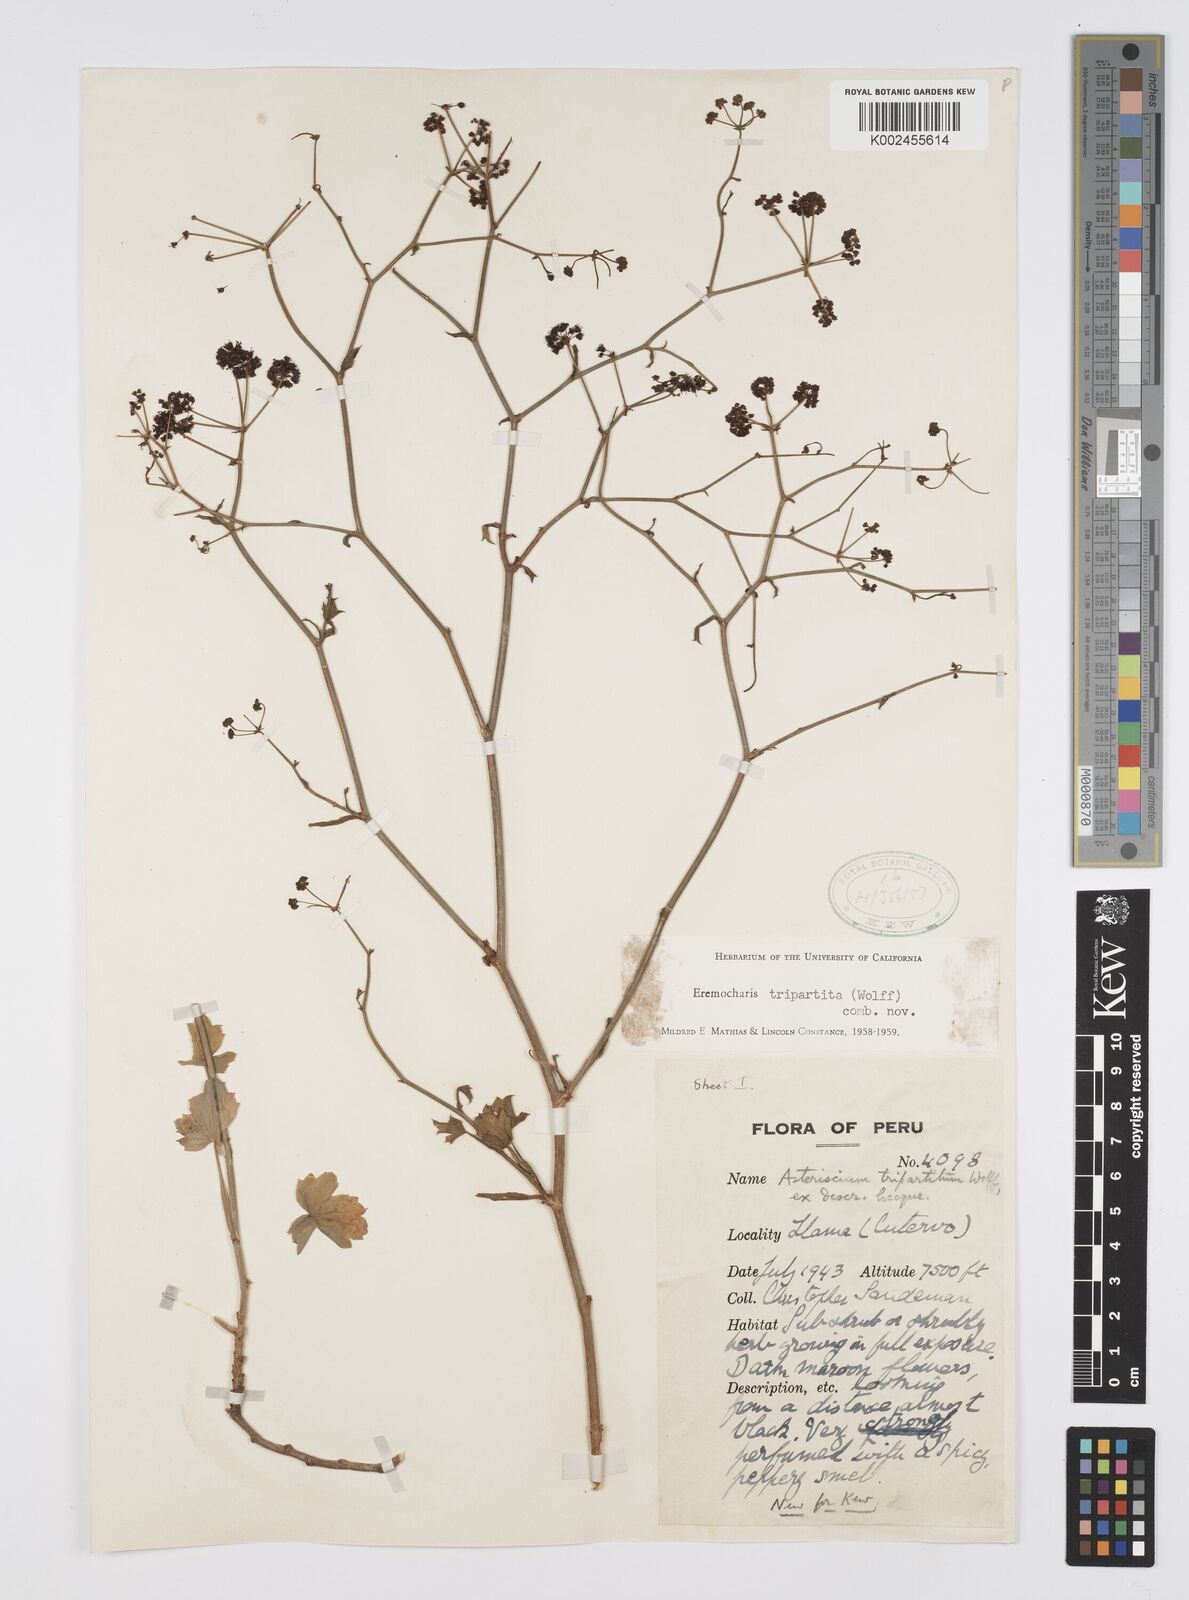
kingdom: Plantae
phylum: Tracheophyta
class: Magnoliopsida
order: Apiales
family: Apiaceae
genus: Eremocharis
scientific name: Eremocharis tripartita
